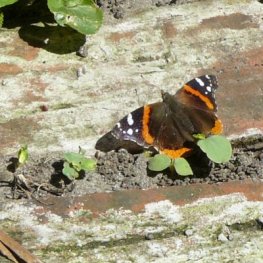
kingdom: Animalia
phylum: Arthropoda
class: Insecta
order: Lepidoptera
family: Nymphalidae
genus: Vanessa
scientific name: Vanessa atalanta
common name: Red Admiral
